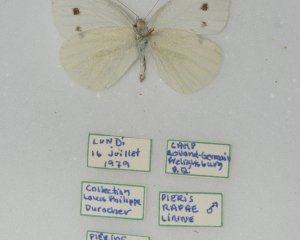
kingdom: Animalia
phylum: Arthropoda
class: Insecta
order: Lepidoptera
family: Pieridae
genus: Pieris
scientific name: Pieris rapae
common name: Cabbage White
